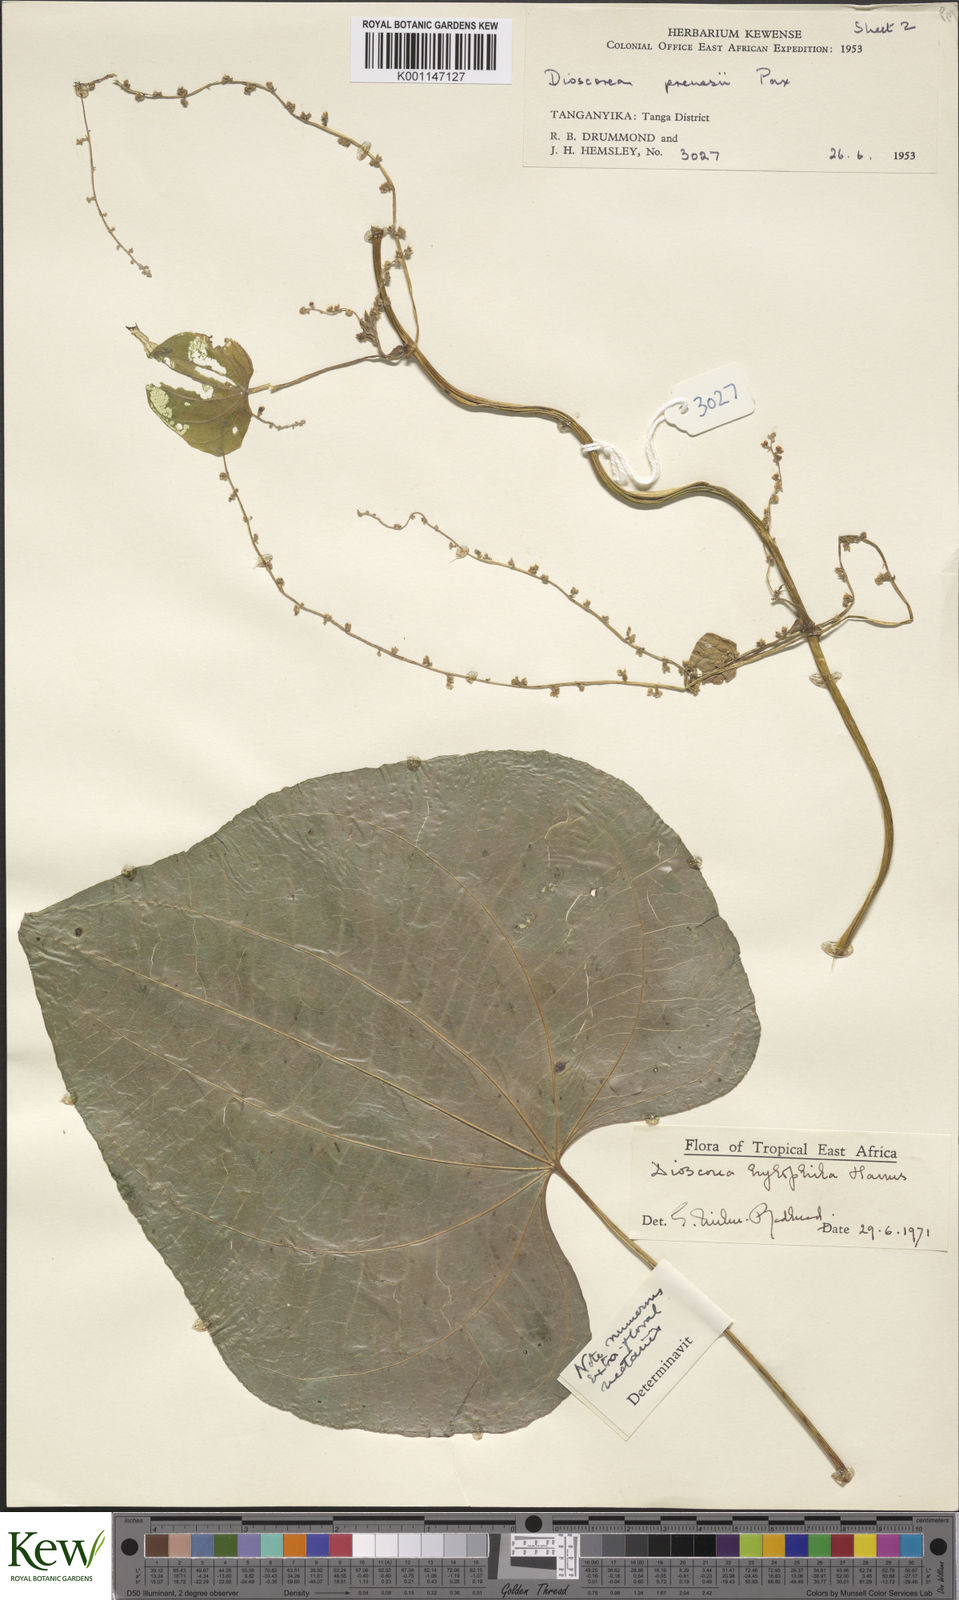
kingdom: Plantae
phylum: Tracheophyta
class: Liliopsida
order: Dioscoreales
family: Dioscoreaceae
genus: Dioscorea
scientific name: Dioscorea
